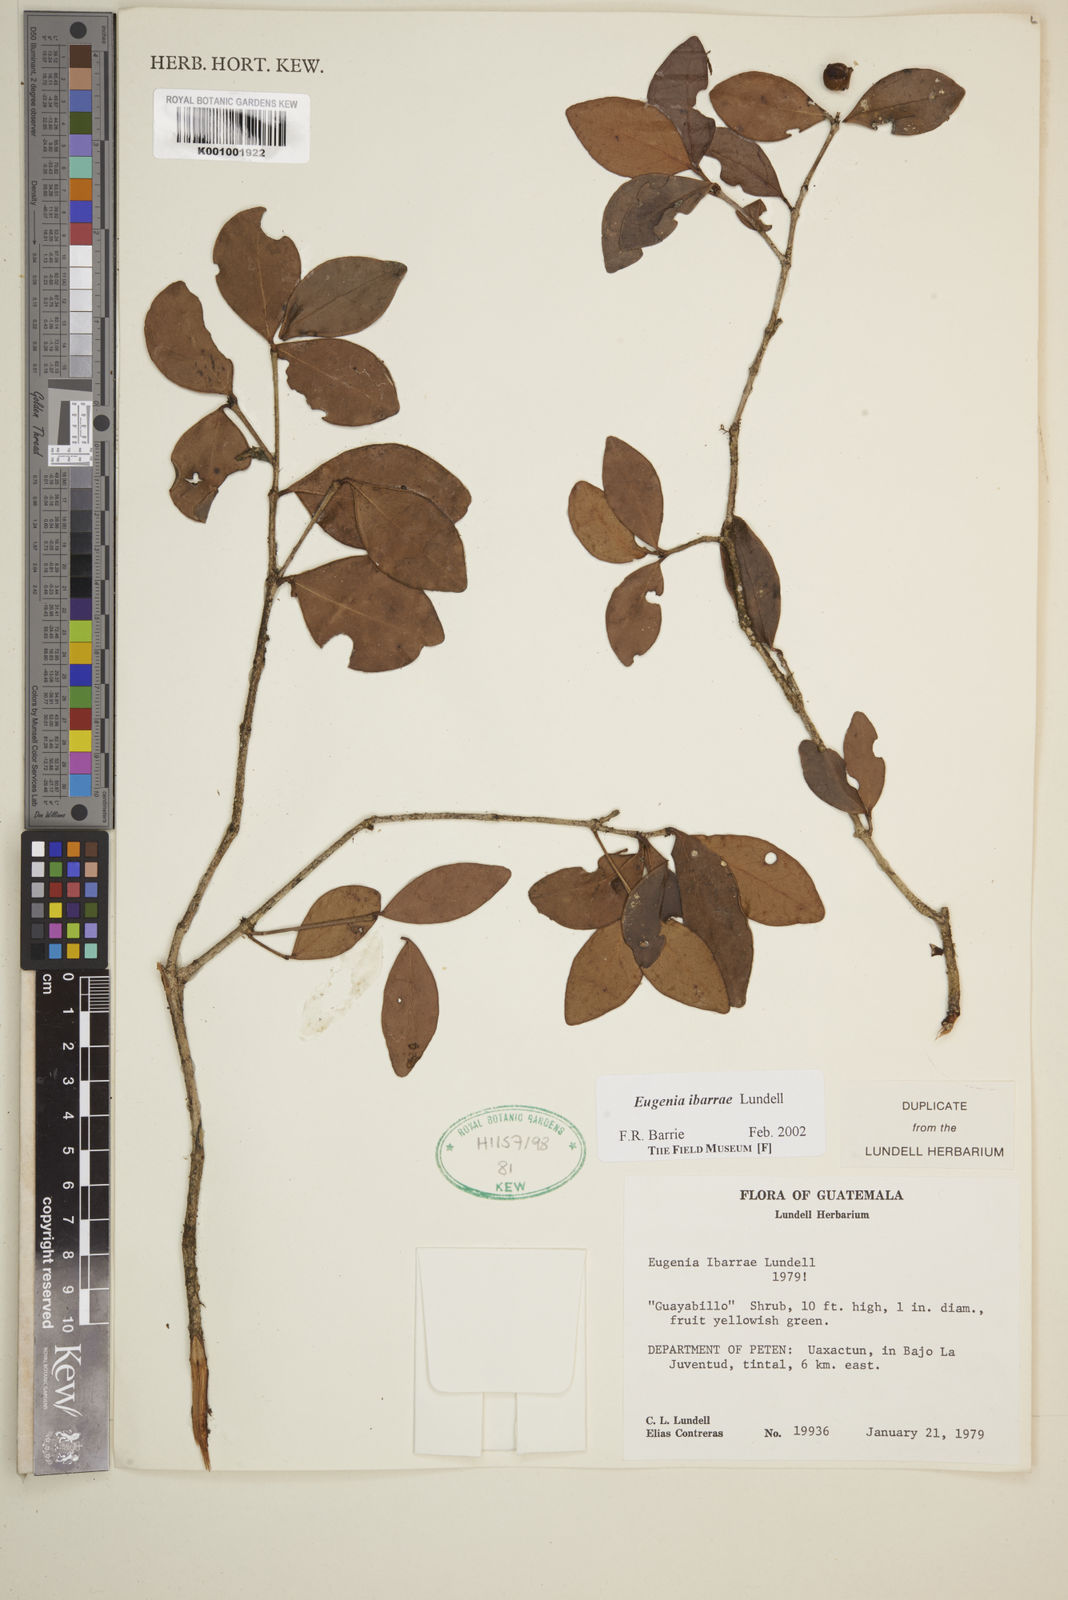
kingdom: Plantae
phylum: Tracheophyta
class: Magnoliopsida
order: Myrtales
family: Myrtaceae
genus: Eugenia
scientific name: Eugenia ibarrae
